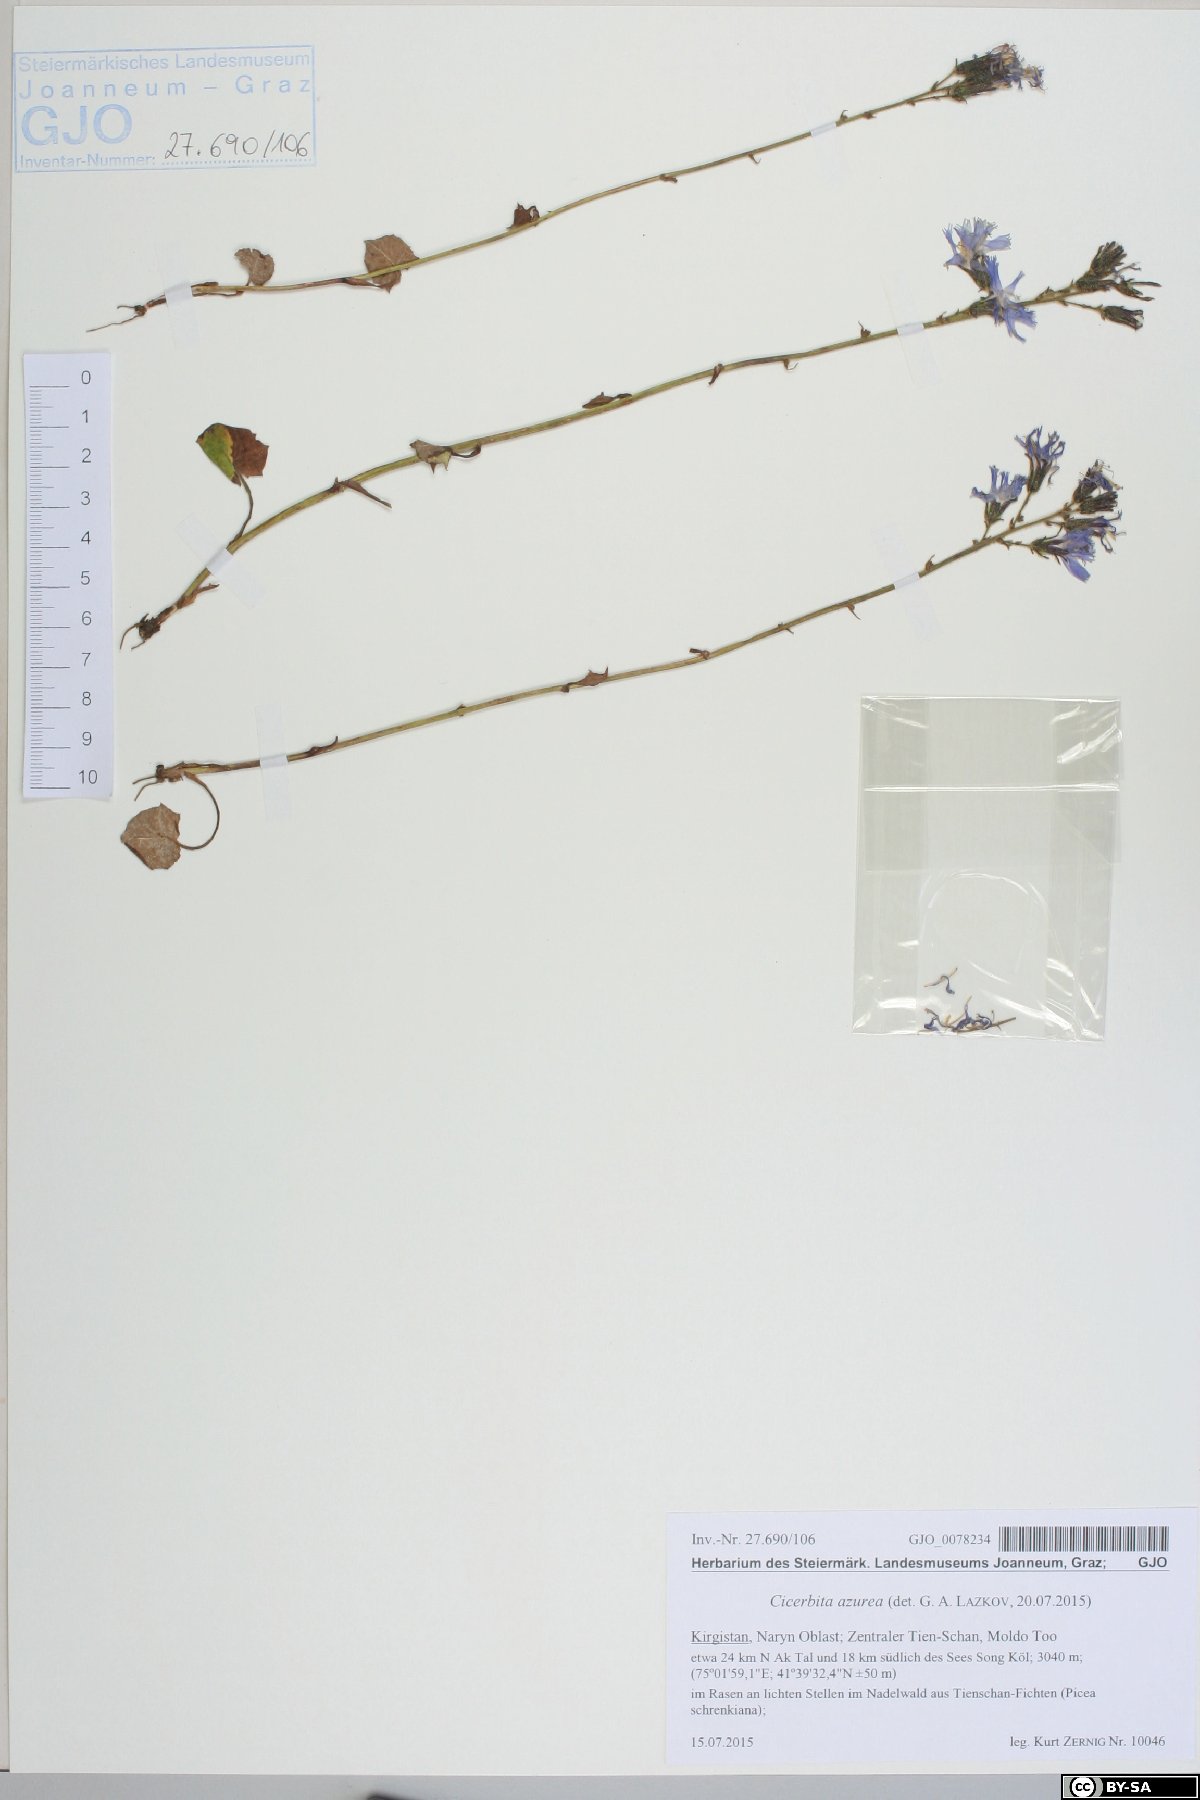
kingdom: Plantae
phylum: Tracheophyta
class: Magnoliopsida
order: Asterales
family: Asteraceae
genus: Cicerbita
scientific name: Cicerbita azurea
